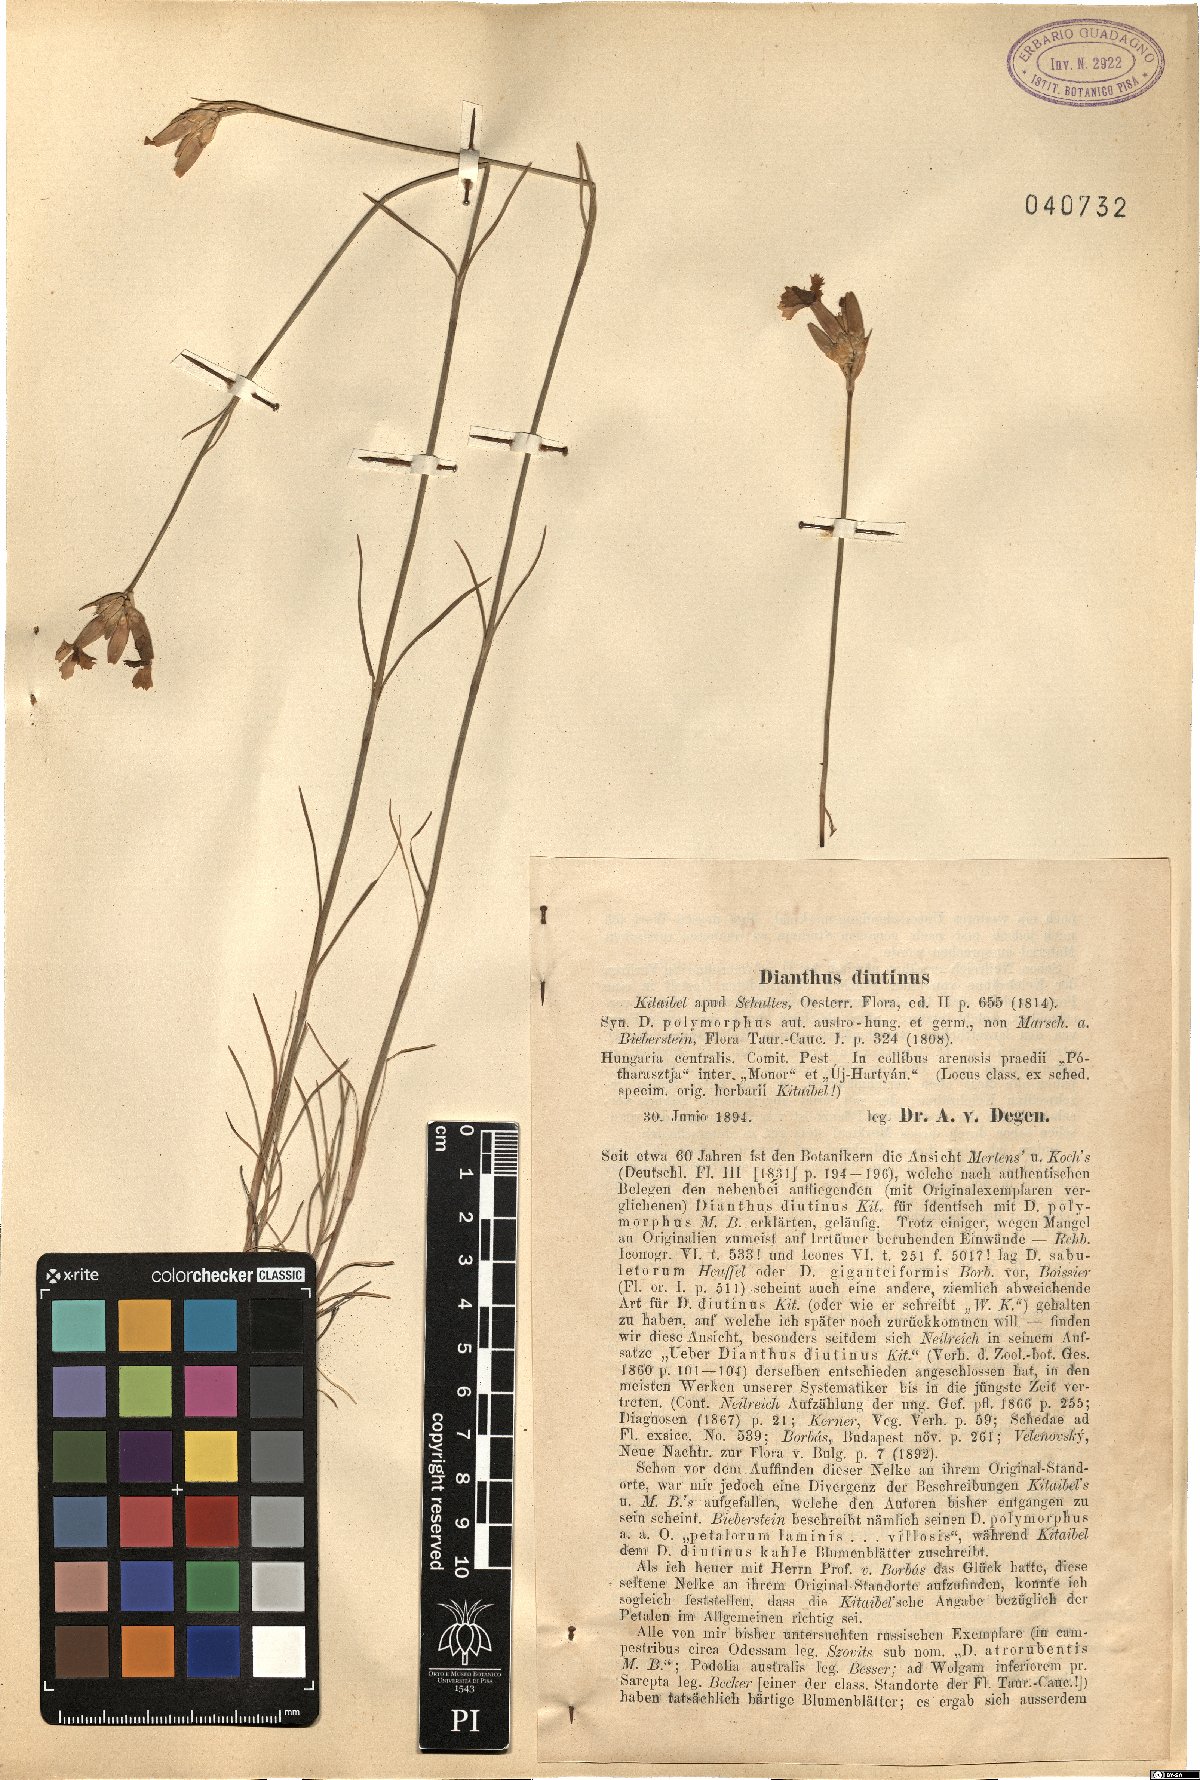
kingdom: Plantae
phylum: Tracheophyta
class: Magnoliopsida
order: Caryophyllales
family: Caryophyllaceae
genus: Dianthus
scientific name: Dianthus polymorphus
